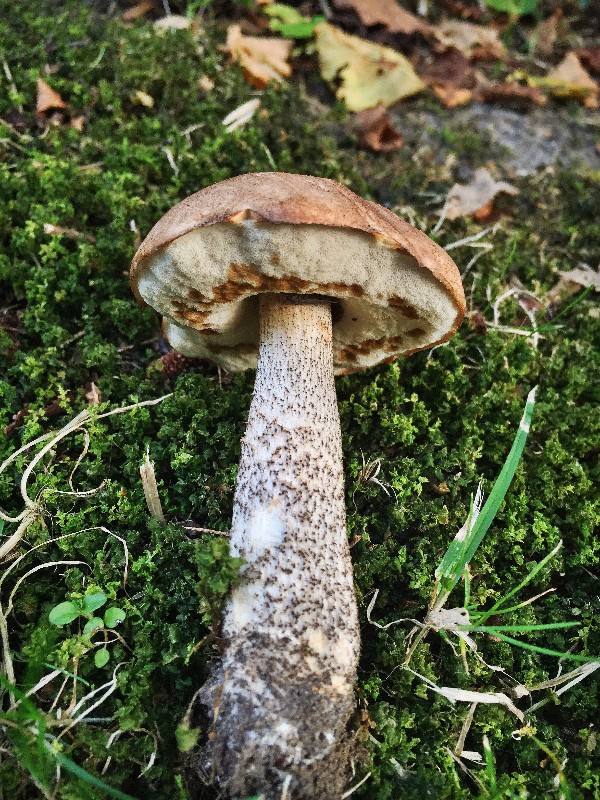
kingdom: Fungi
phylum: Basidiomycota
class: Agaricomycetes
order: Boletales
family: Boletaceae
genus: Leccinum
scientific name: Leccinum scabrum
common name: brun skælrørhat
